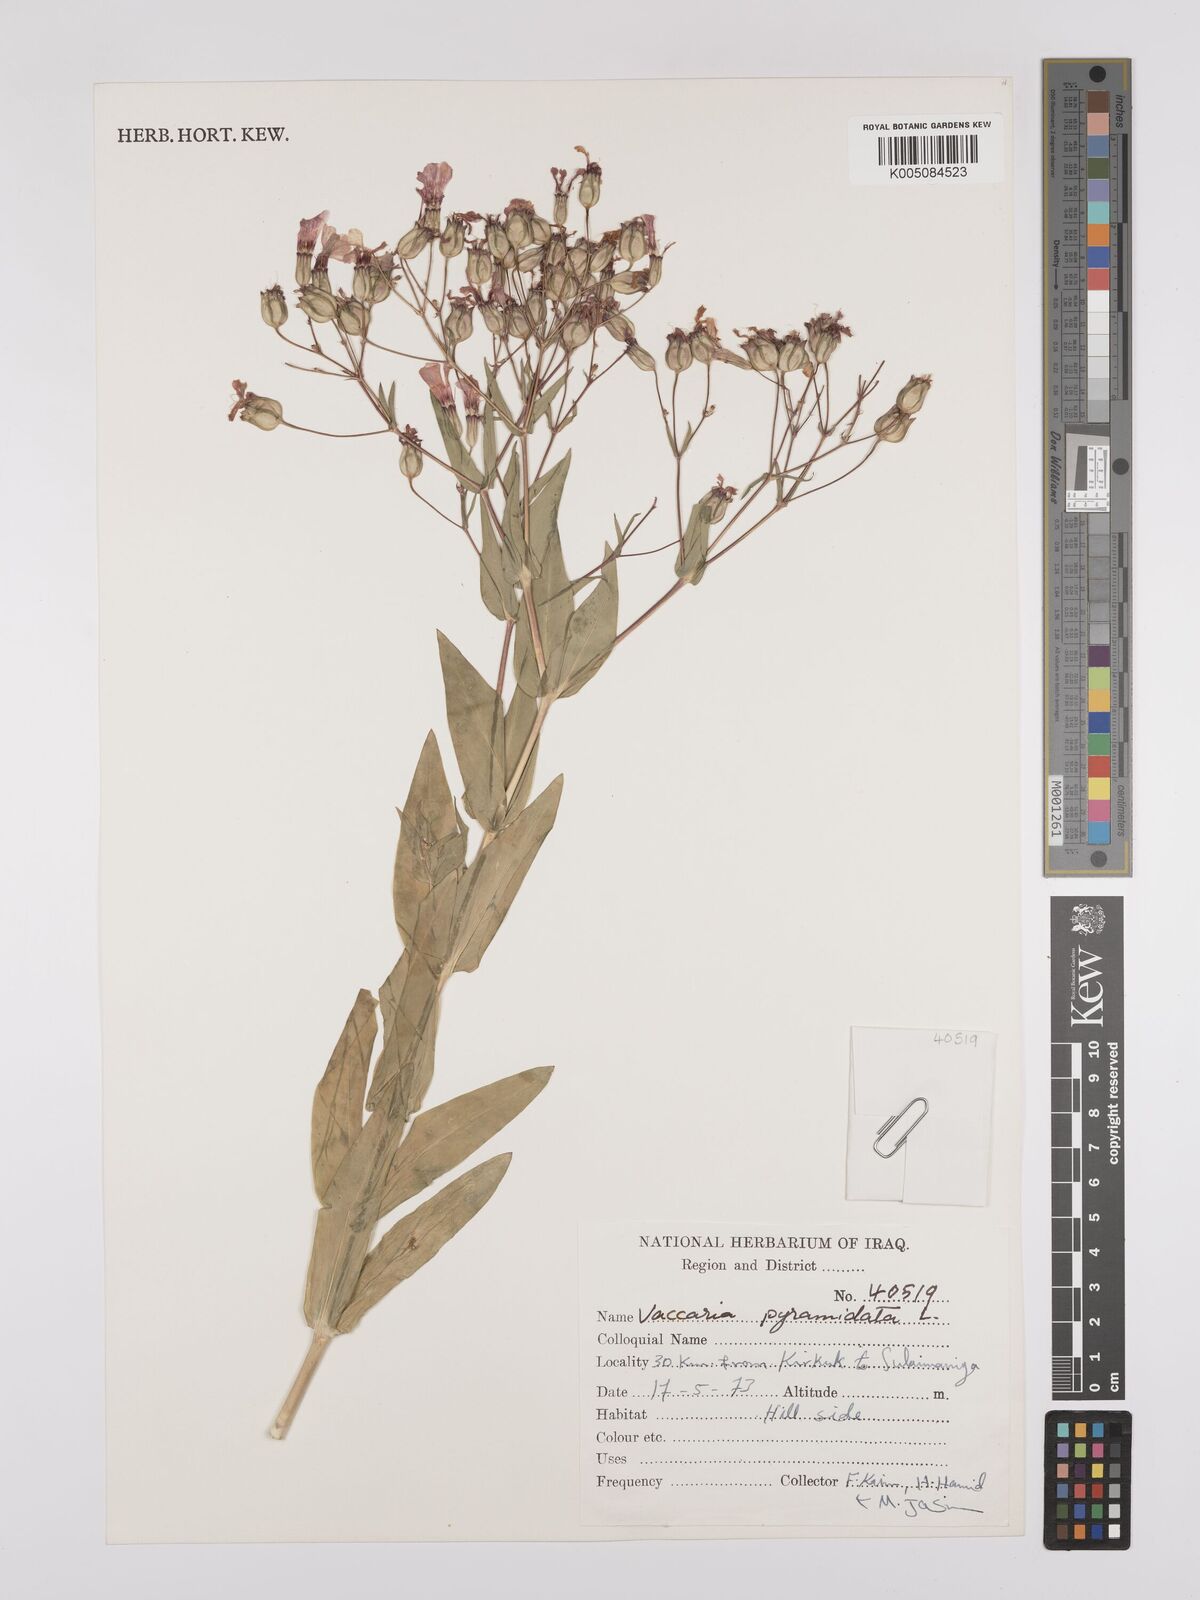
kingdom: Plantae
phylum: Tracheophyta
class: Magnoliopsida
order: Caryophyllales
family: Caryophyllaceae
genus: Gypsophila
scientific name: Gypsophila vaccaria
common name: Cow soapwort
